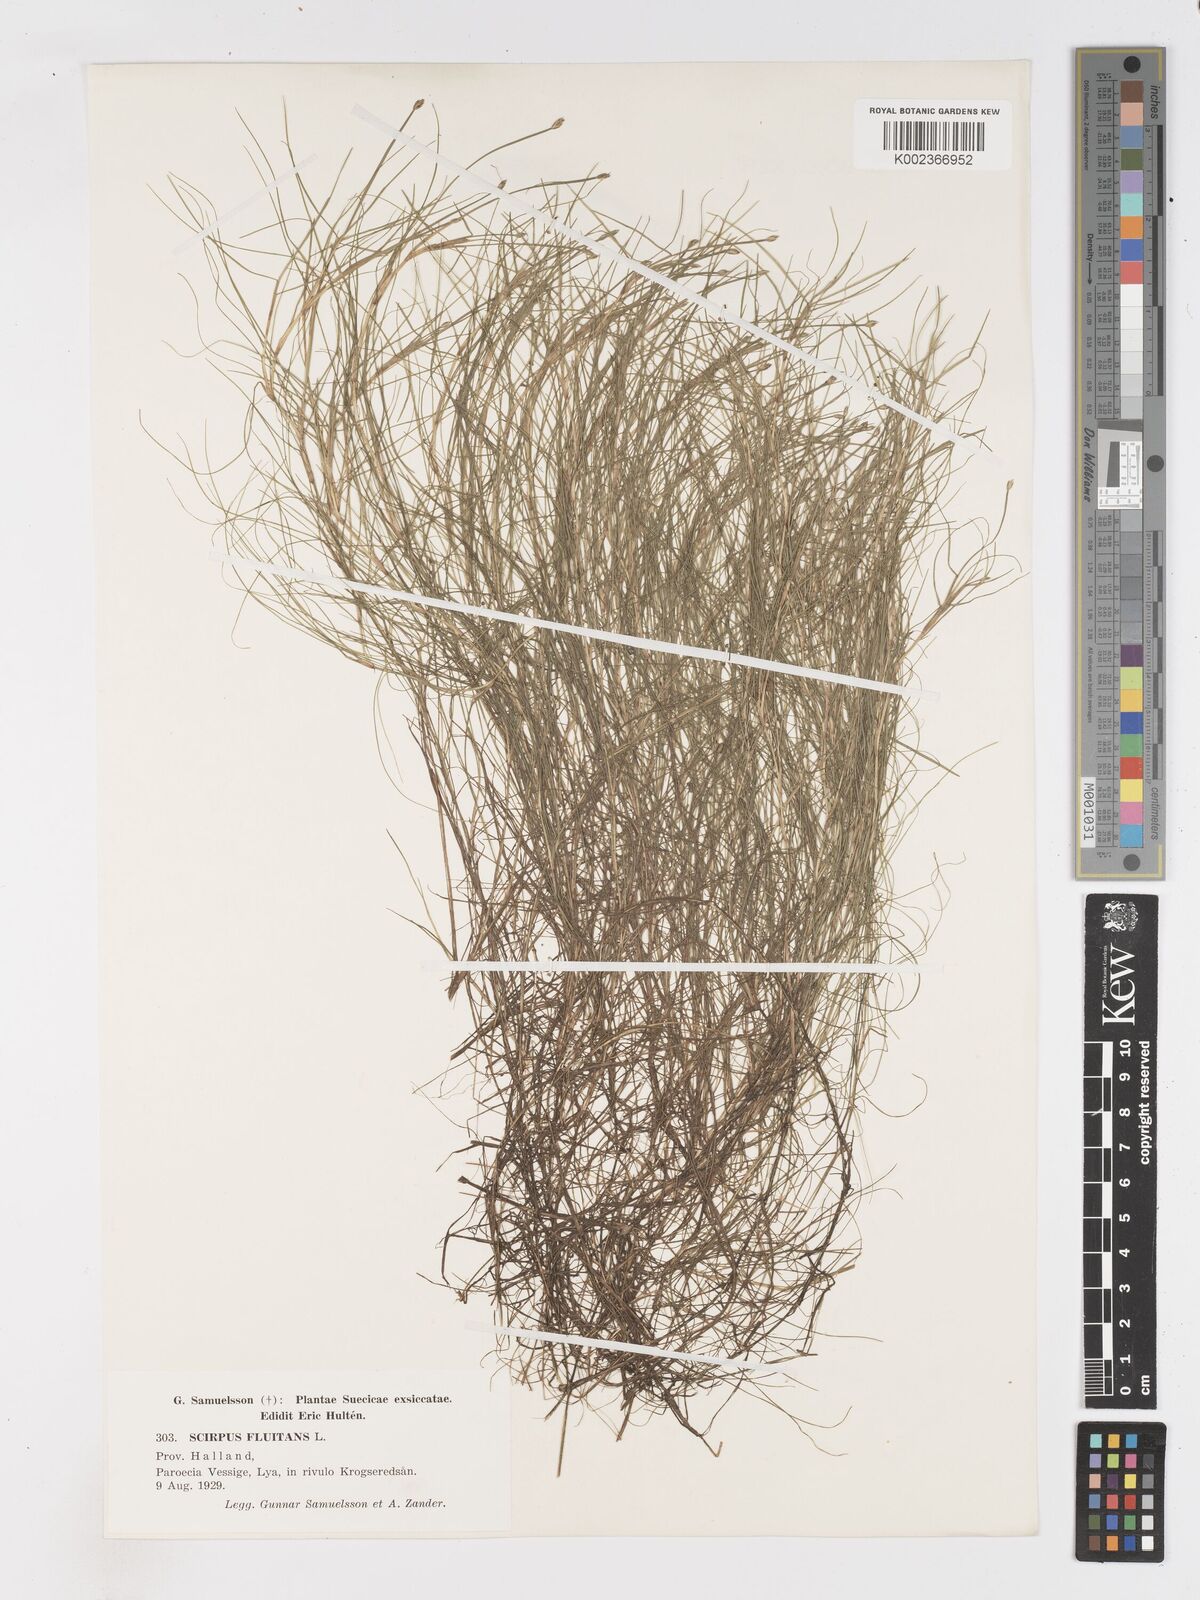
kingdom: Plantae
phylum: Tracheophyta
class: Liliopsida
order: Poales
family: Cyperaceae
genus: Isolepis
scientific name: Isolepis fluitans
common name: Floating club-rush
